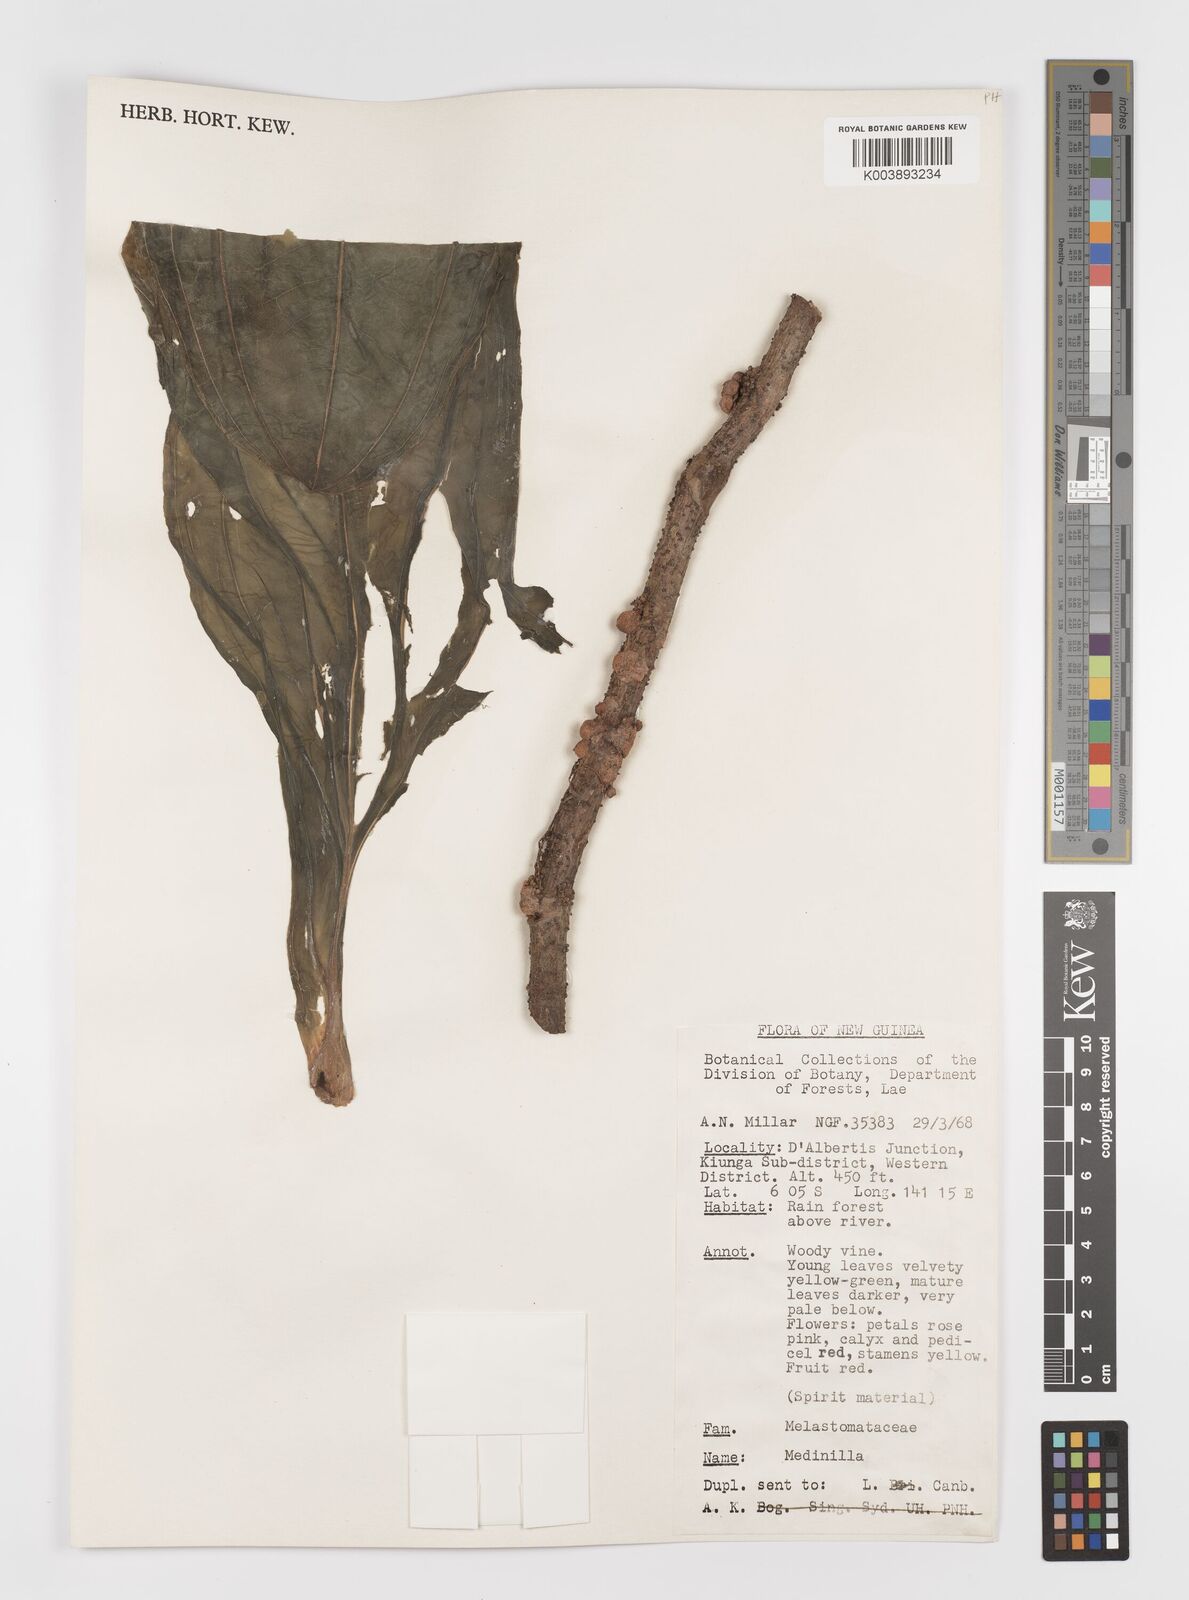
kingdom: Plantae
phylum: Tracheophyta
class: Magnoliopsida
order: Myrtales
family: Melastomataceae
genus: Medinilla
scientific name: Medinilla
